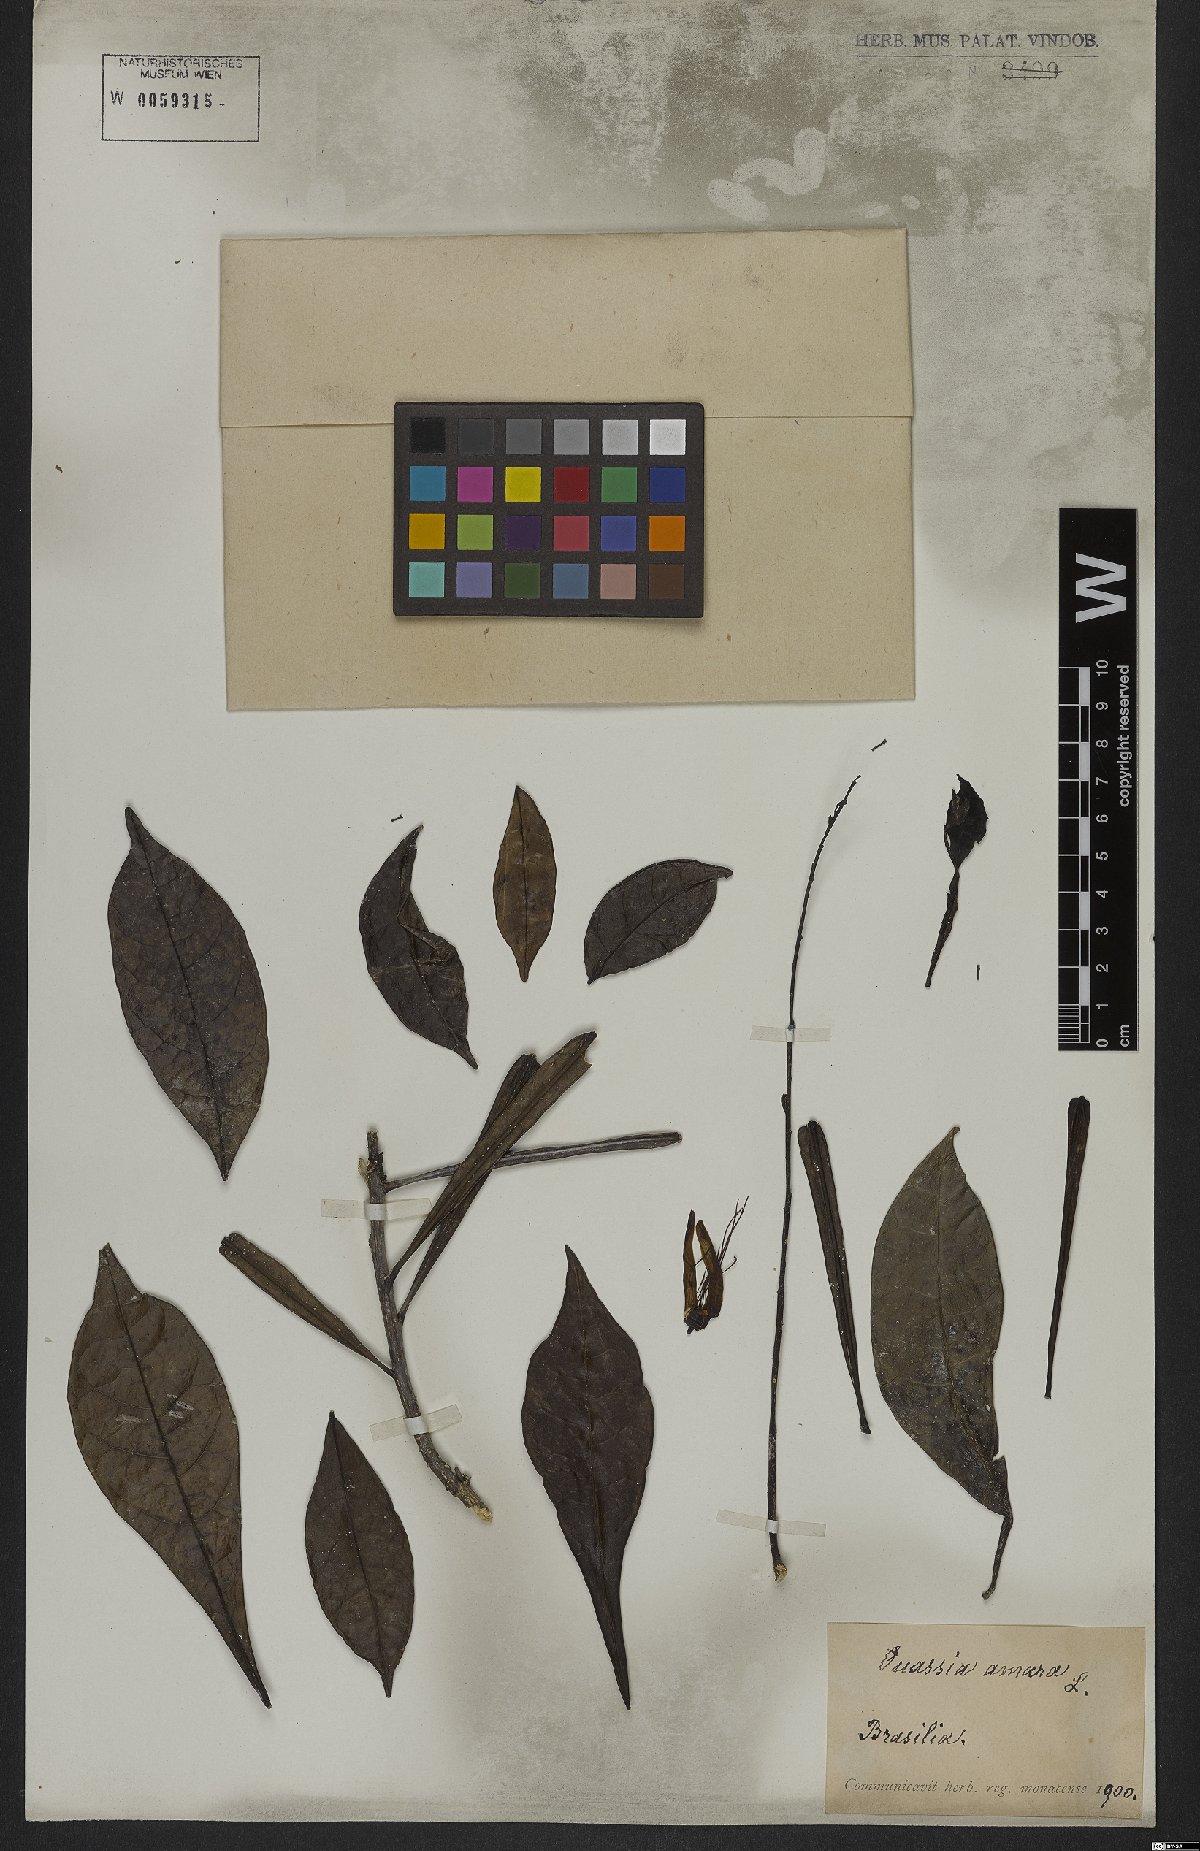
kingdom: Plantae
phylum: Tracheophyta
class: Magnoliopsida
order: Sapindales
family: Simaroubaceae
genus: Quassia
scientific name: Quassia amara
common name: Quassia
